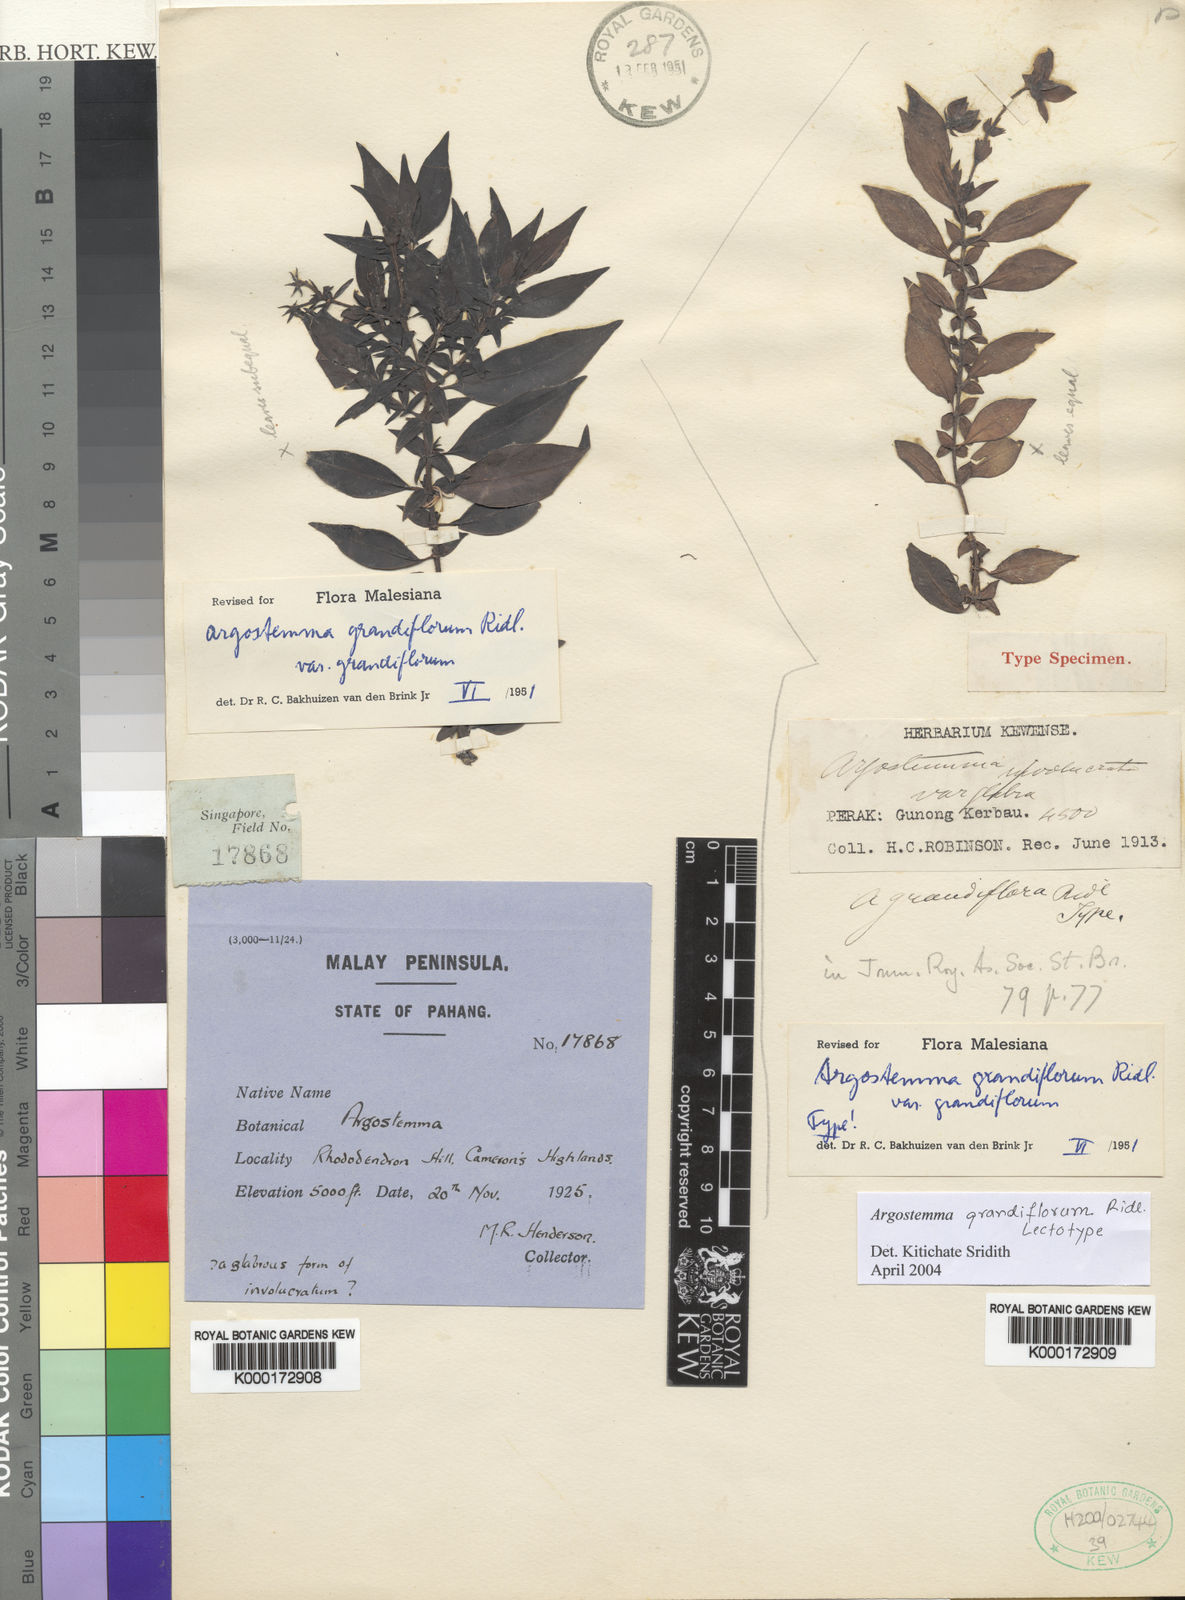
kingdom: Plantae
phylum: Tracheophyta
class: Magnoliopsida
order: Gentianales
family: Rubiaceae
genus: Argostemma
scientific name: Argostemma grandiflorum
